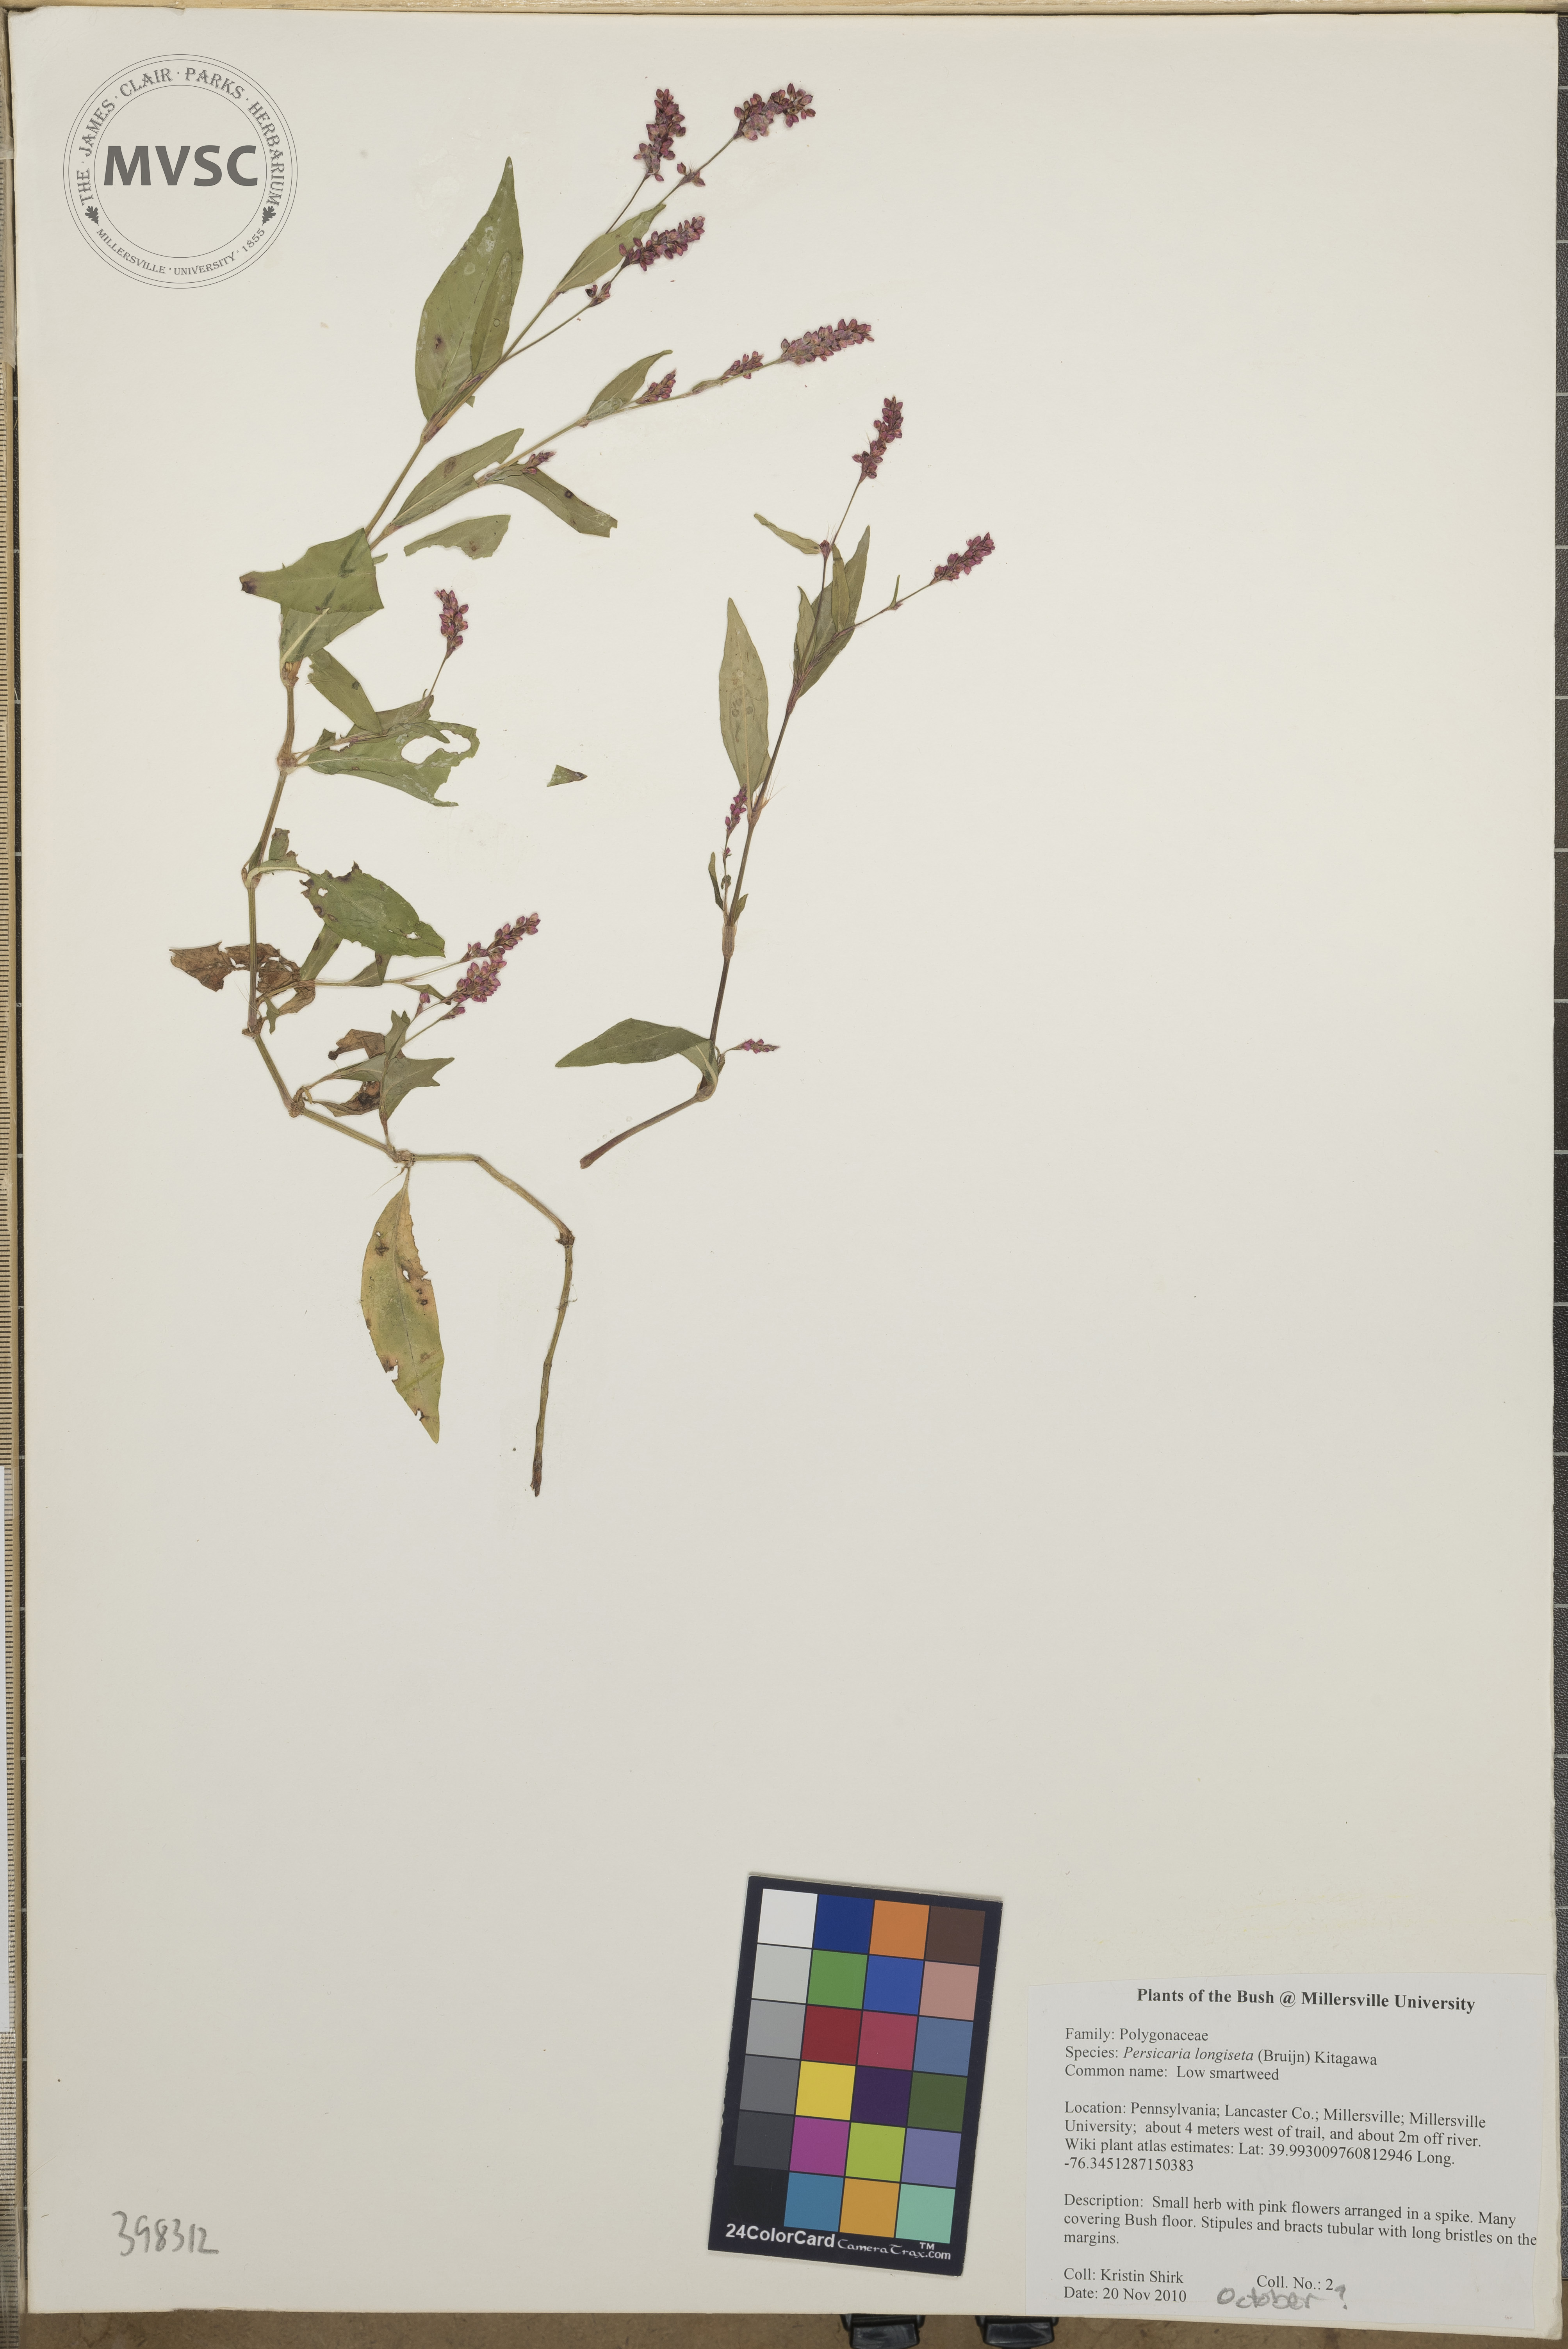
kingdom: Plantae
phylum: Tracheophyta
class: Magnoliopsida
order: Caryophyllales
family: Polygonaceae
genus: Persicaria
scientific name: Persicaria longiseta
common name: Low smartweed
